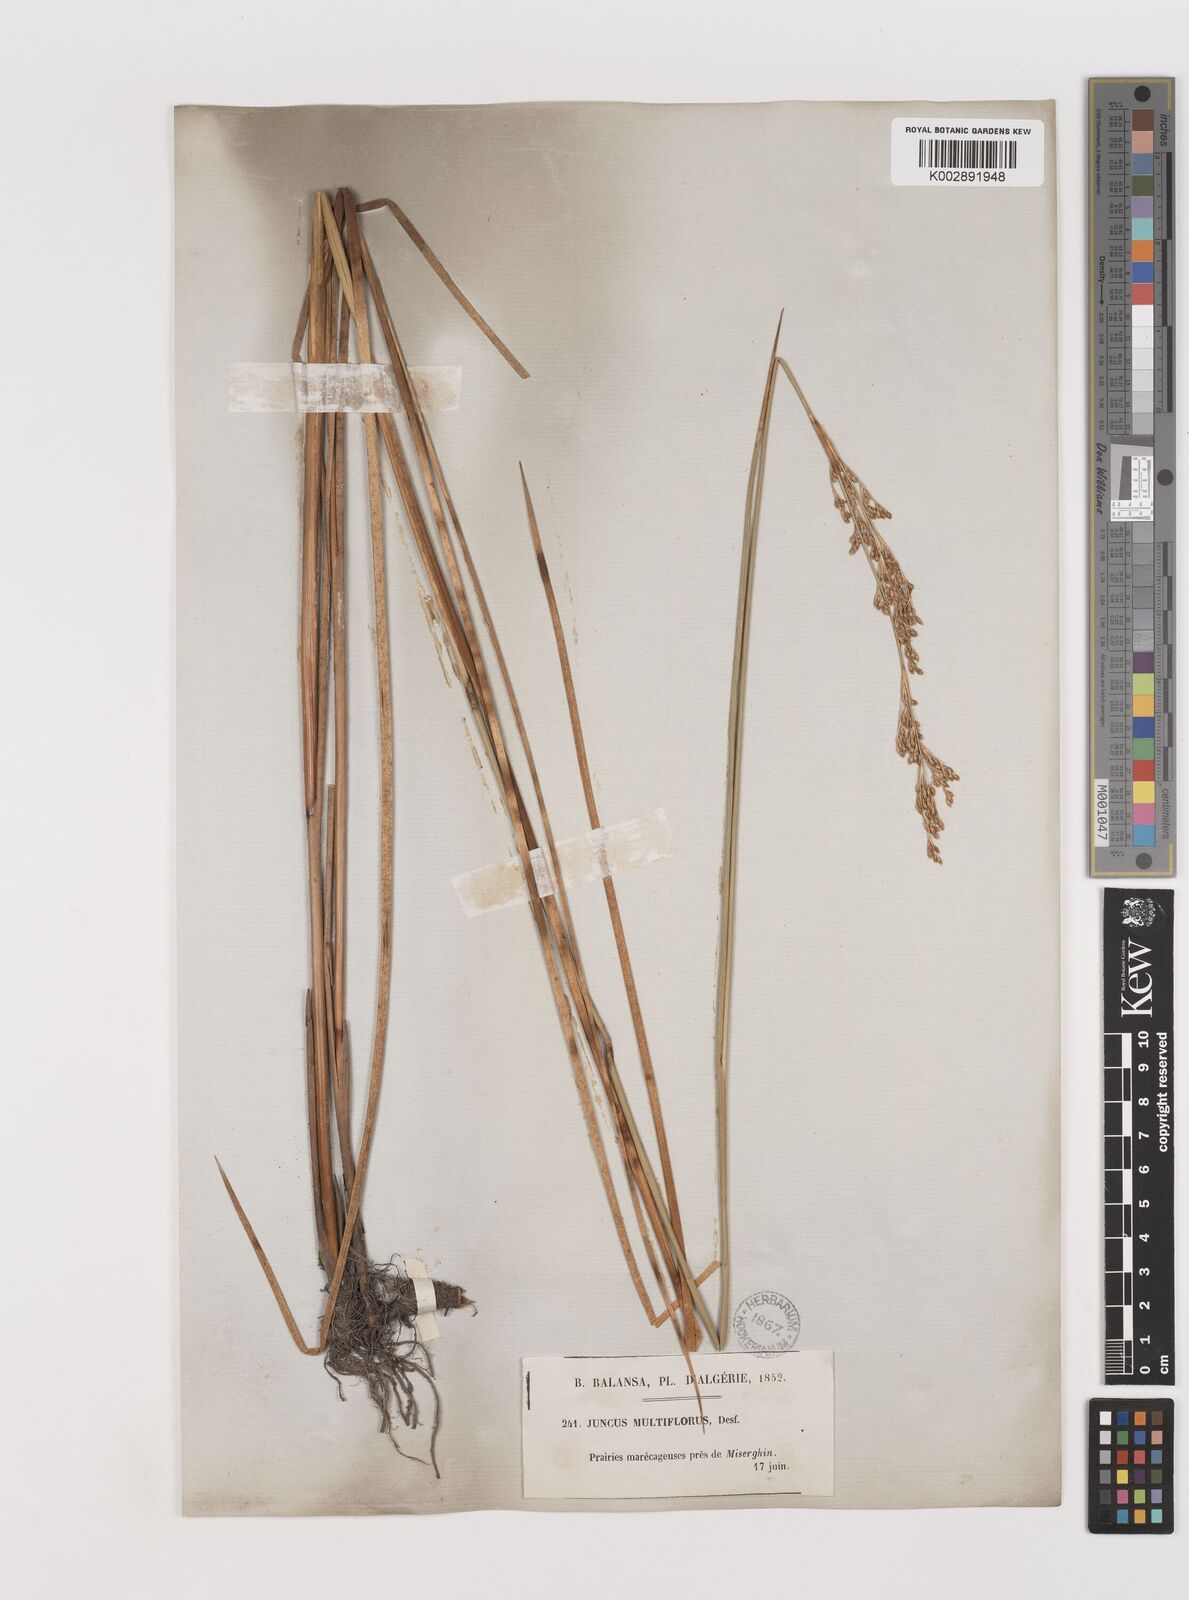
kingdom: Plantae
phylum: Tracheophyta
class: Liliopsida
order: Poales
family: Juncaceae
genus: Juncus
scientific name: Juncus subulatus
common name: Somerset rush
